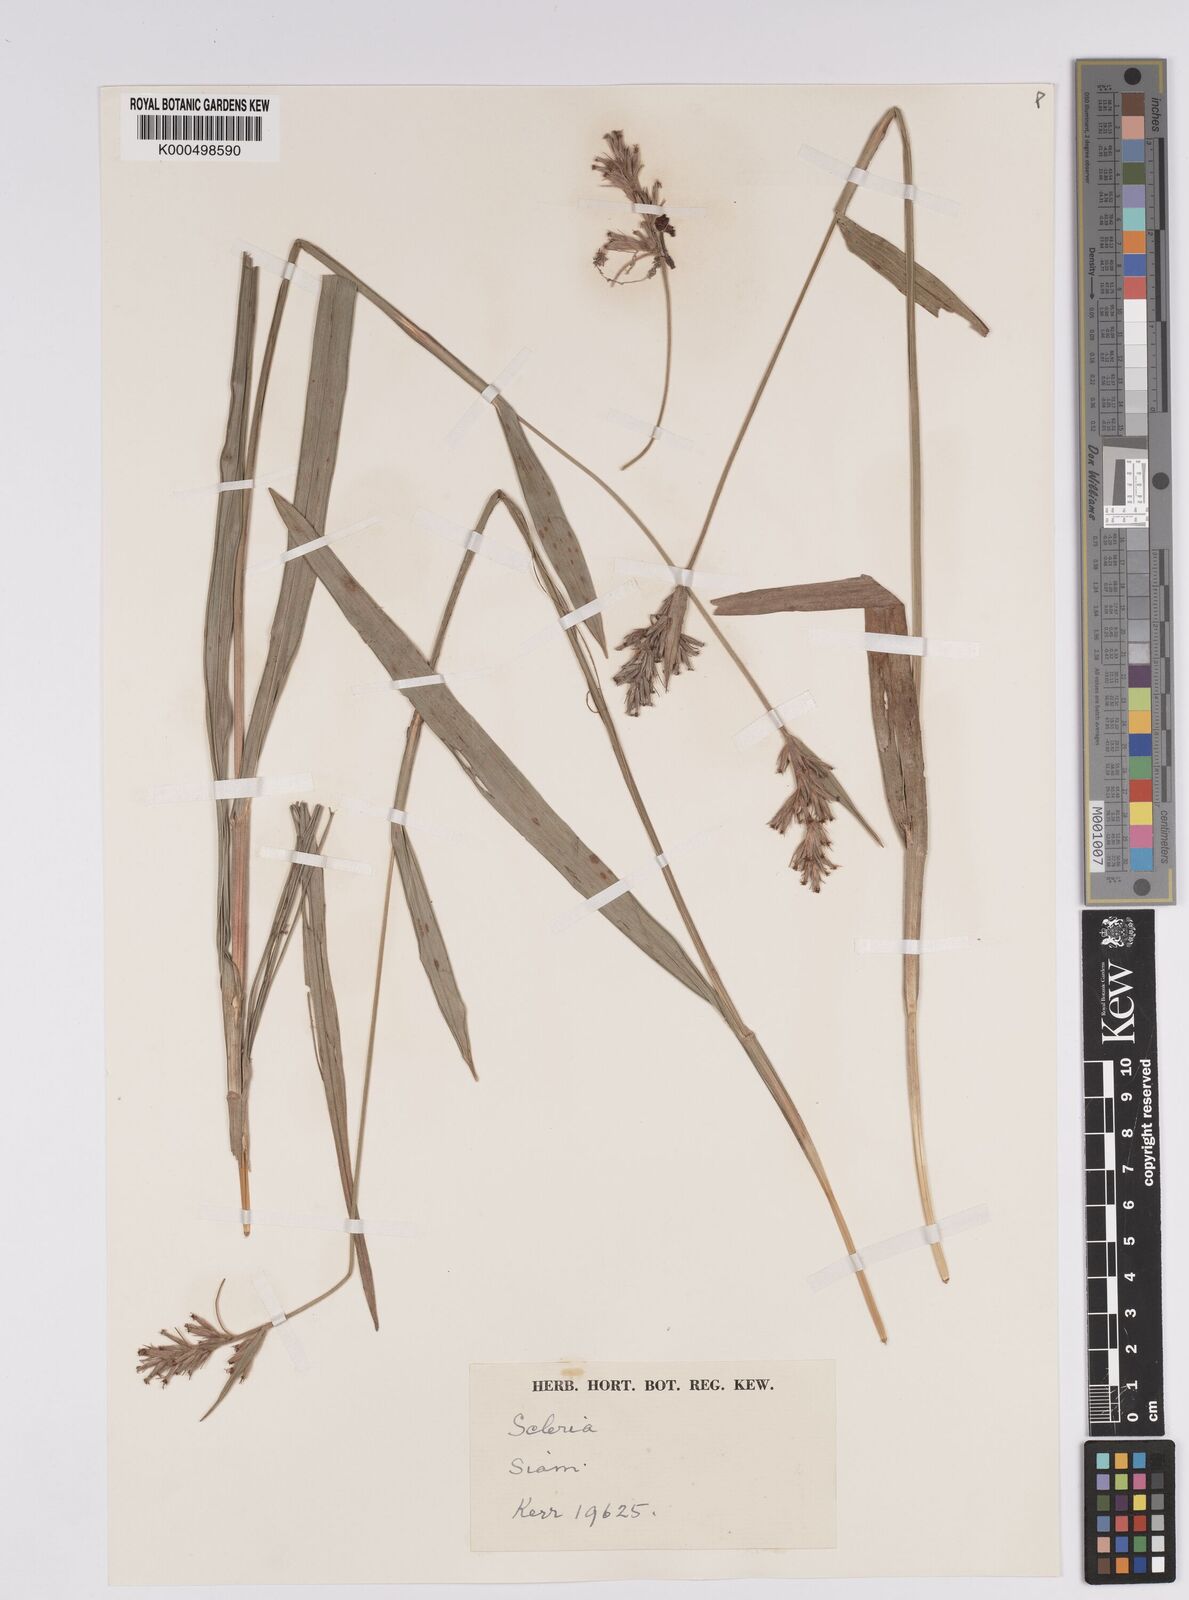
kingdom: Plantae
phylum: Tracheophyta
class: Liliopsida
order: Poales
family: Cyperaceae
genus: Scleria
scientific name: Scleria tonkinensis
